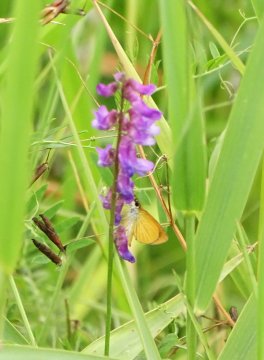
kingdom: Animalia
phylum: Arthropoda
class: Insecta
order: Lepidoptera
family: Hesperiidae
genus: Ancyloxypha
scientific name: Ancyloxypha numitor
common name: Least Skipper
